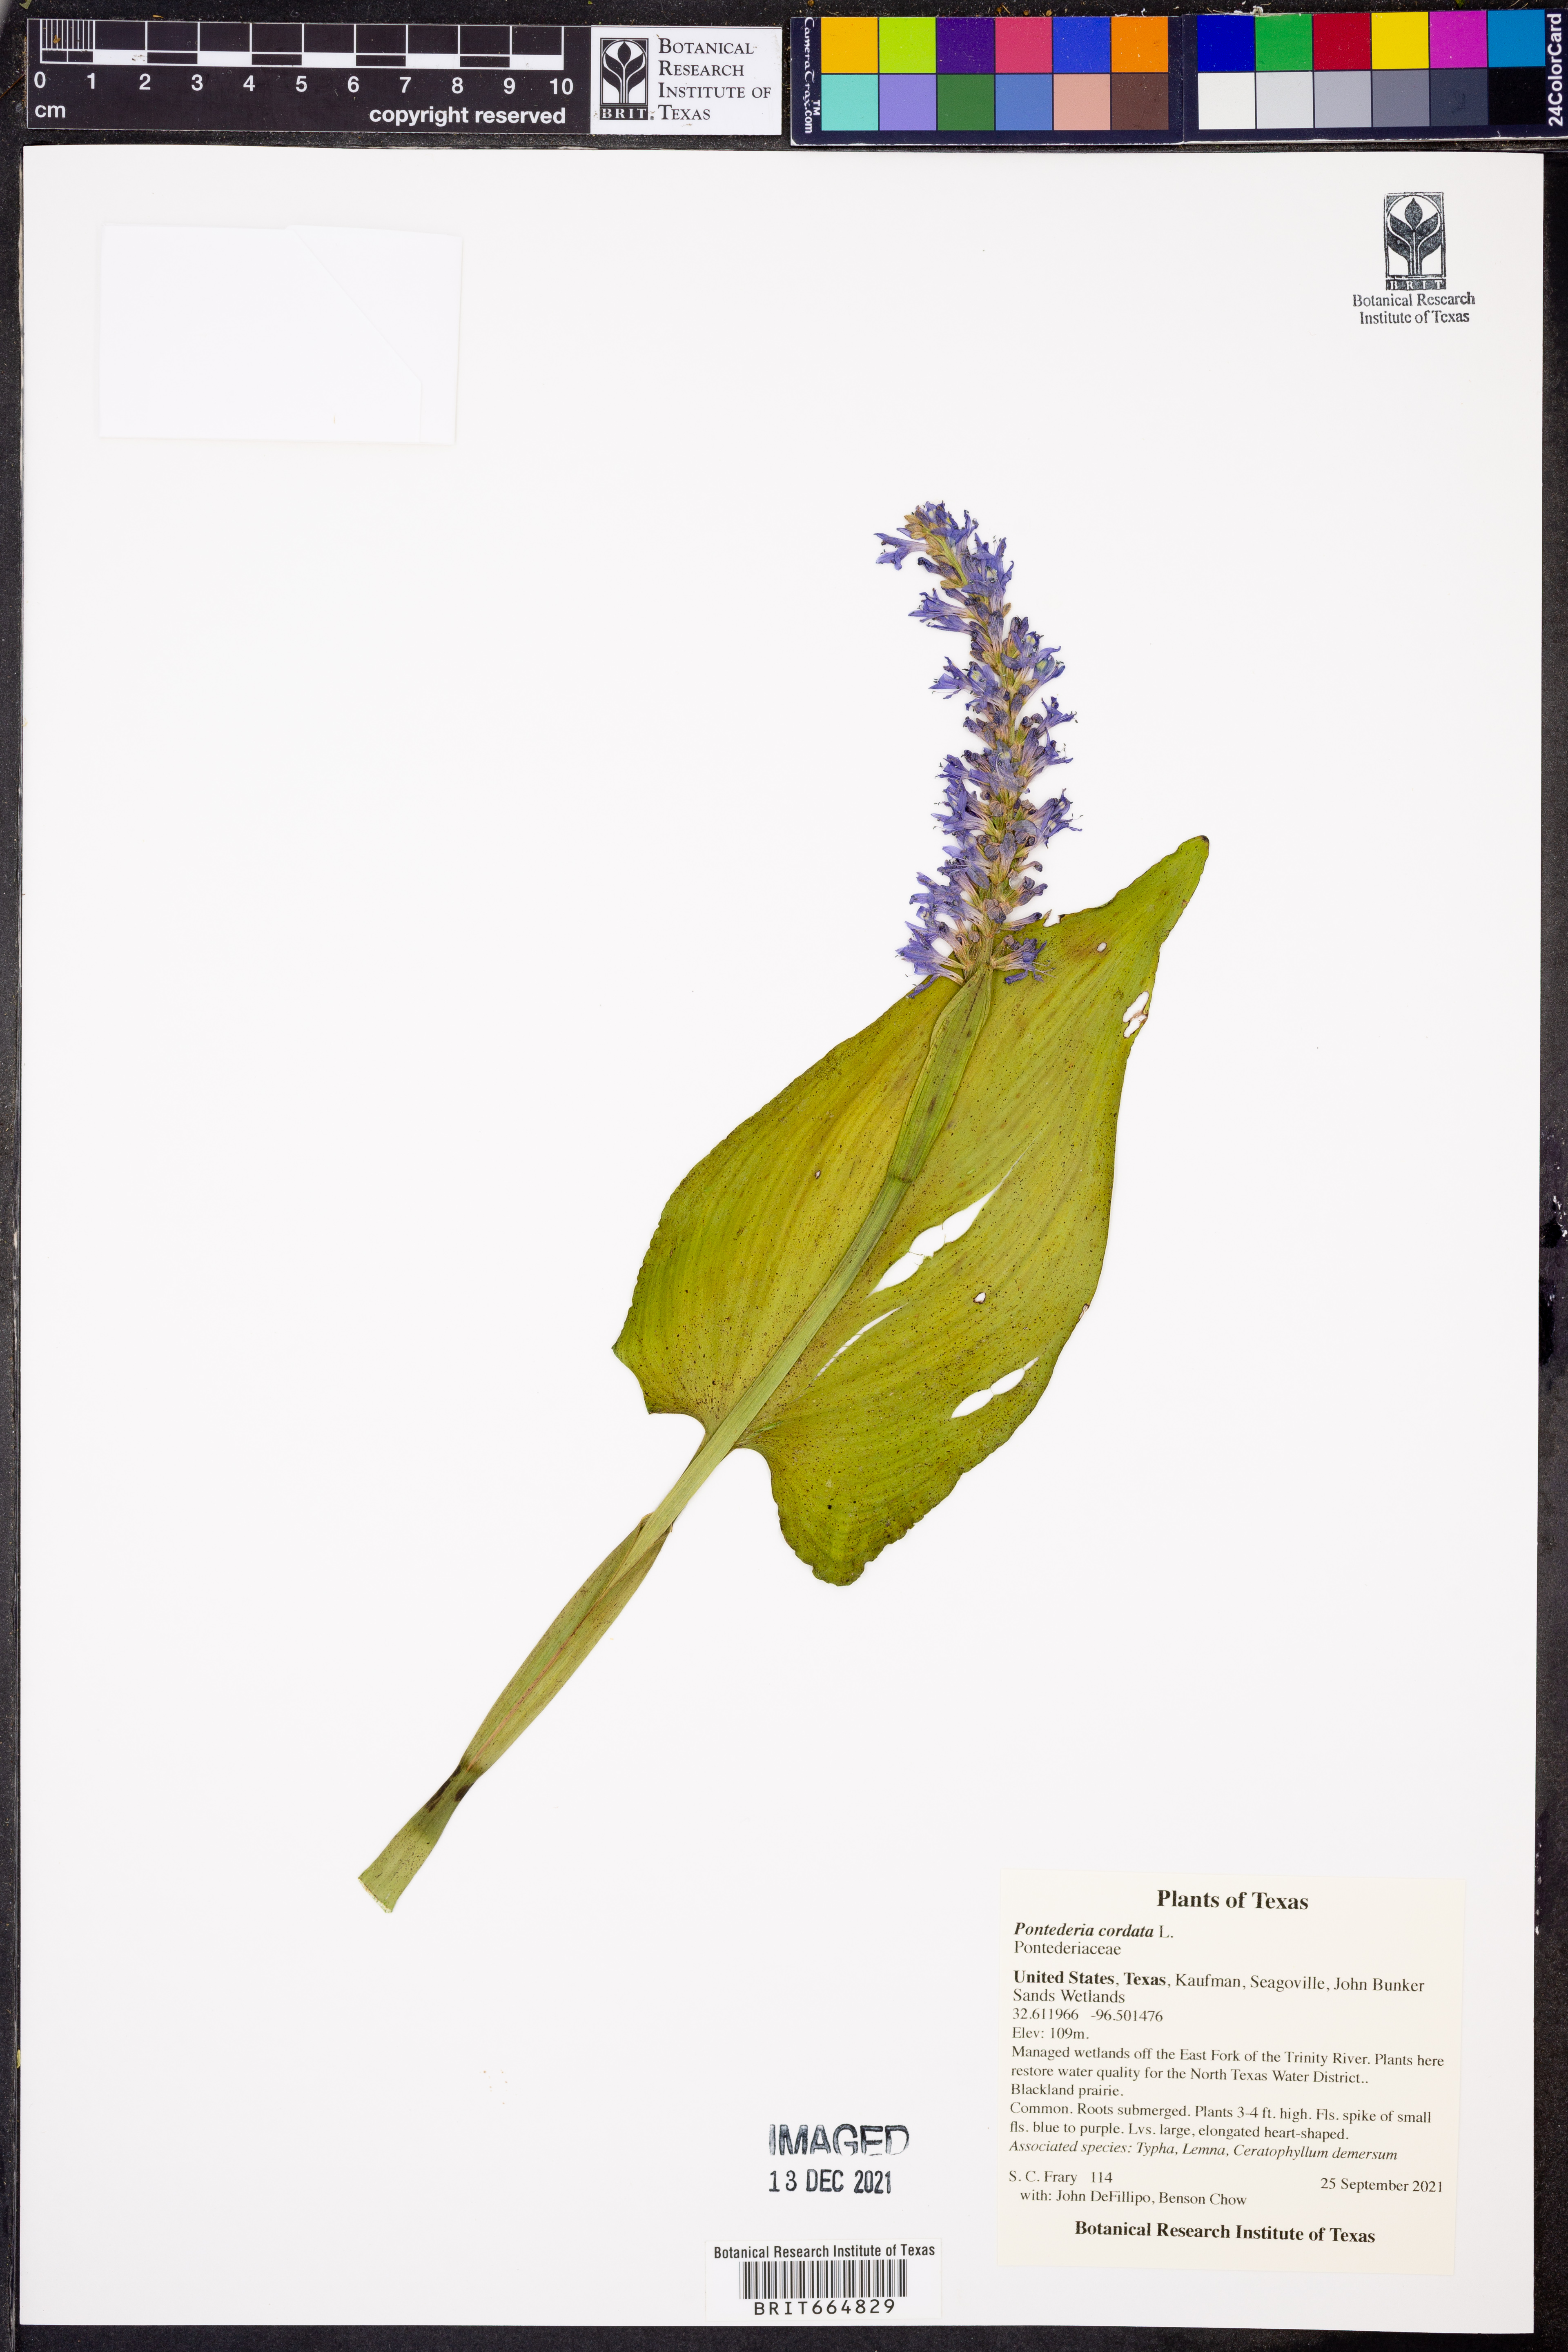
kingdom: Plantae
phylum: Tracheophyta
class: Liliopsida
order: Commelinales
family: Pontederiaceae
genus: Pontederia
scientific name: Pontederia cordata
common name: Pickerelweed
